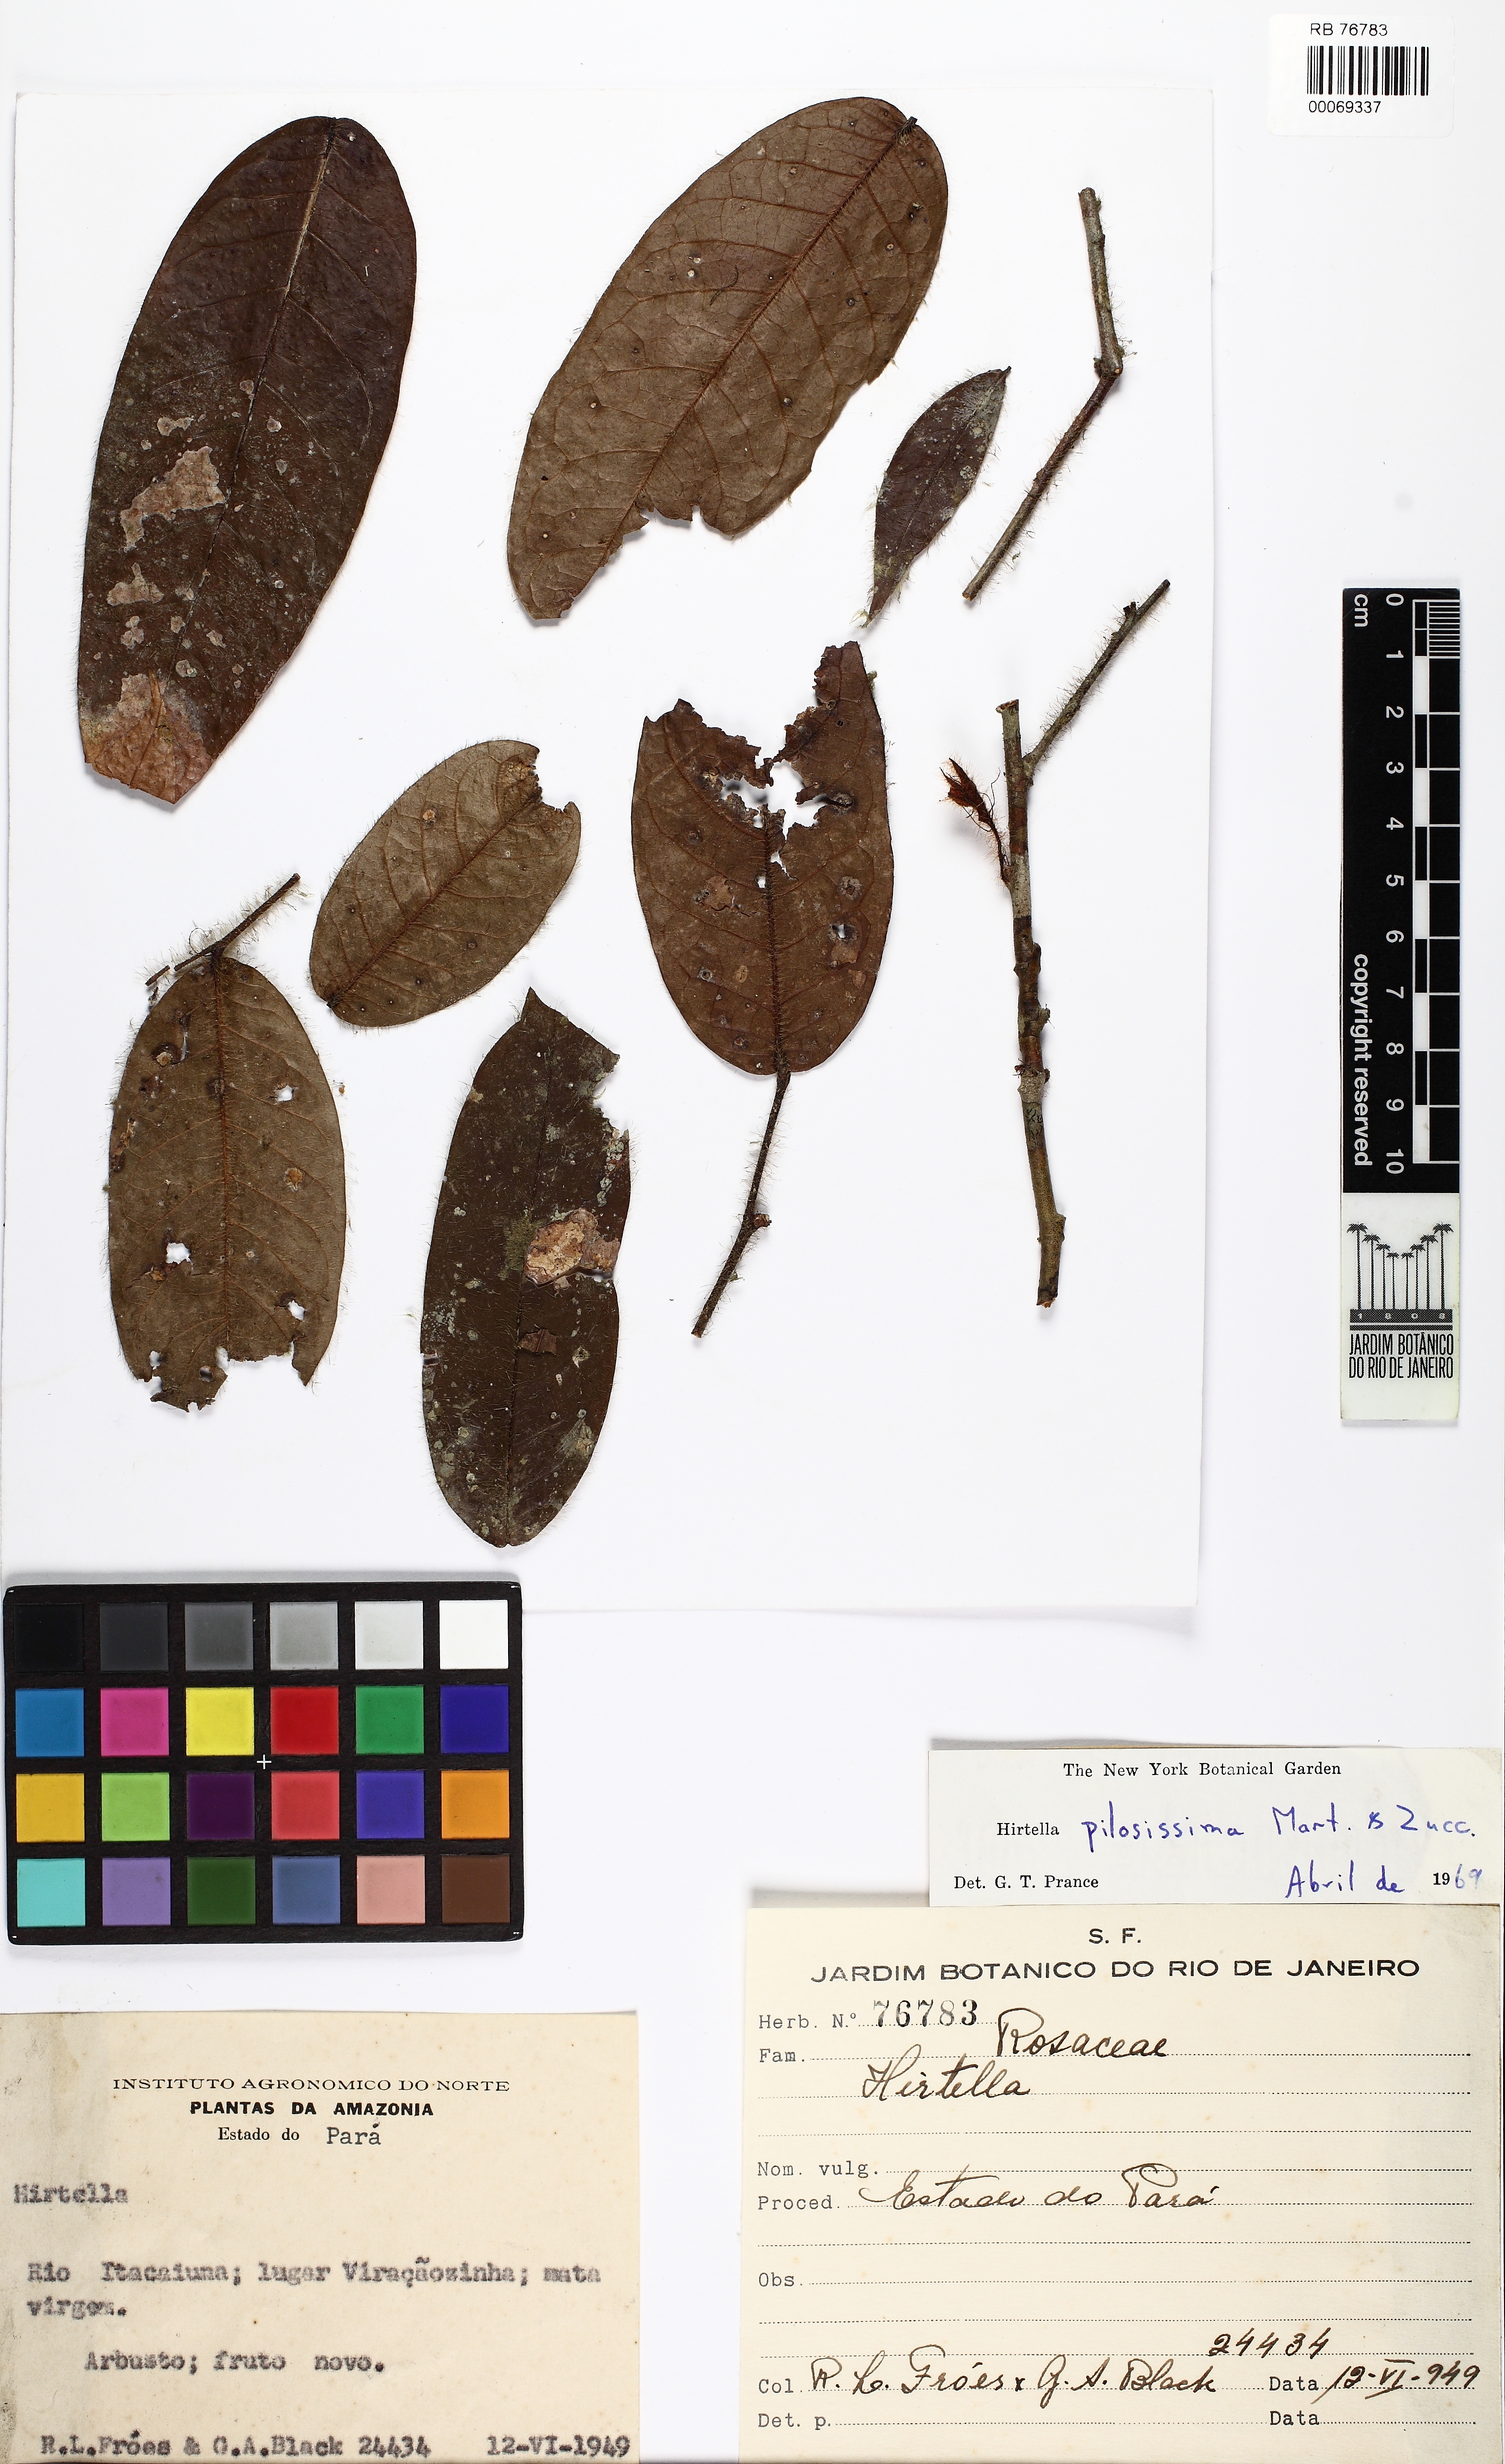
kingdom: Plantae
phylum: Tracheophyta
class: Magnoliopsida
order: Malpighiales
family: Chrysobalanaceae
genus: Hirtella
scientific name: Hirtella pilosissima
